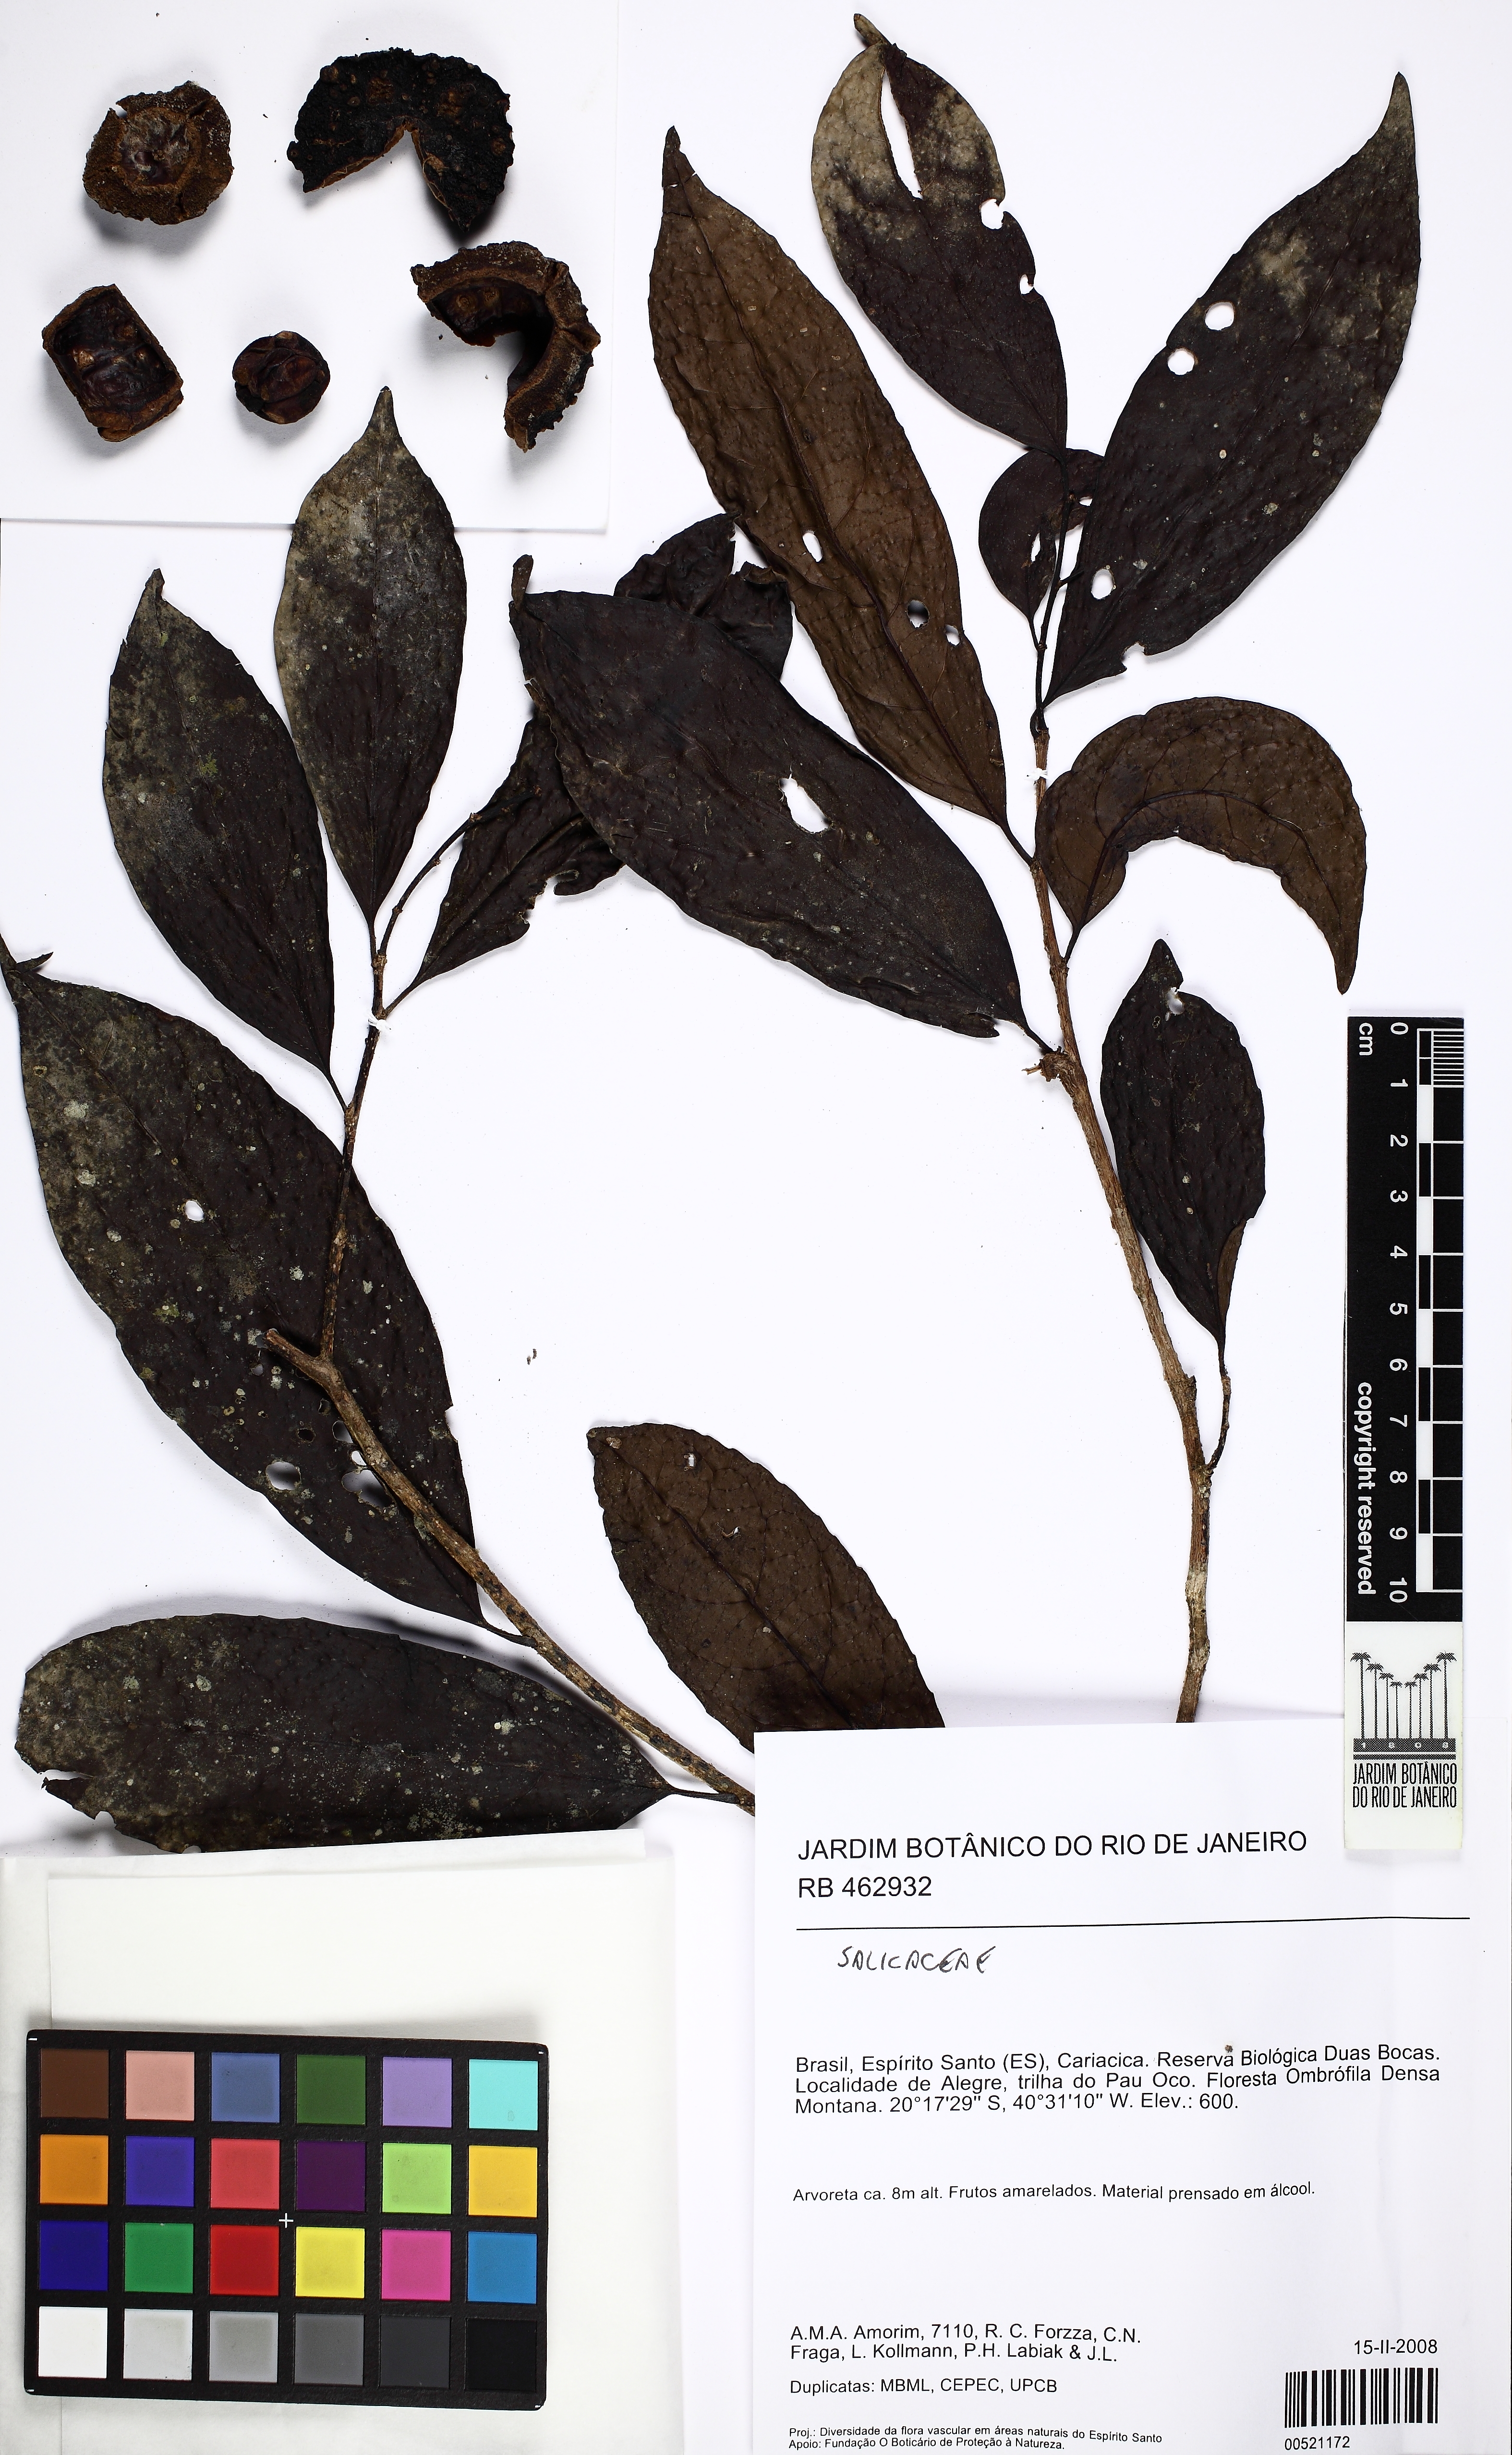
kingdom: Plantae
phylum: Tracheophyta
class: Magnoliopsida
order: Malpighiales
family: Salicaceae
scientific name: Salicaceae
